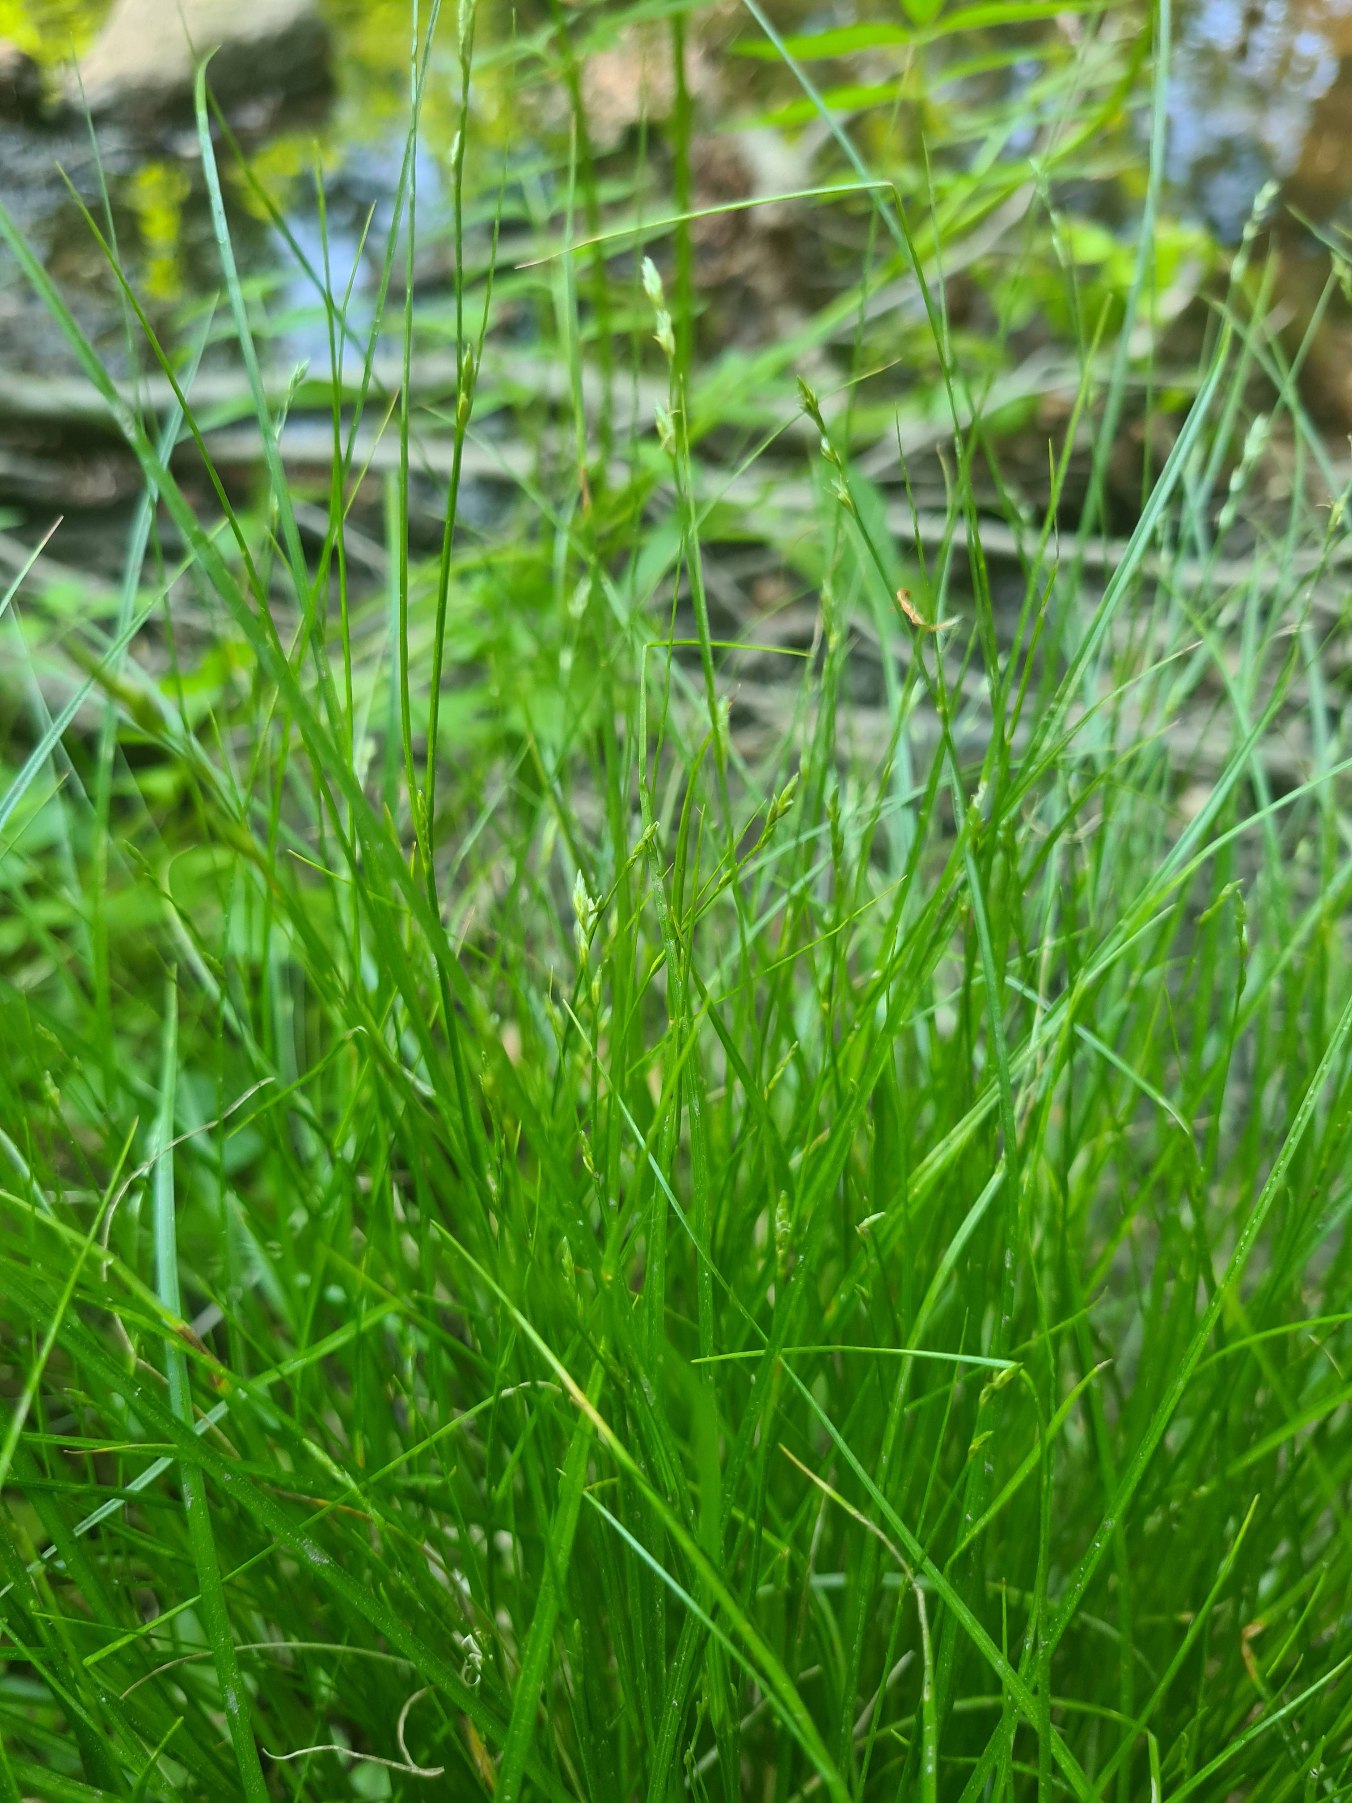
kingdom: Plantae
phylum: Tracheophyta
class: Liliopsida
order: Poales
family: Cyperaceae
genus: Carex
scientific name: Carex remota
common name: Akselblomstret star
